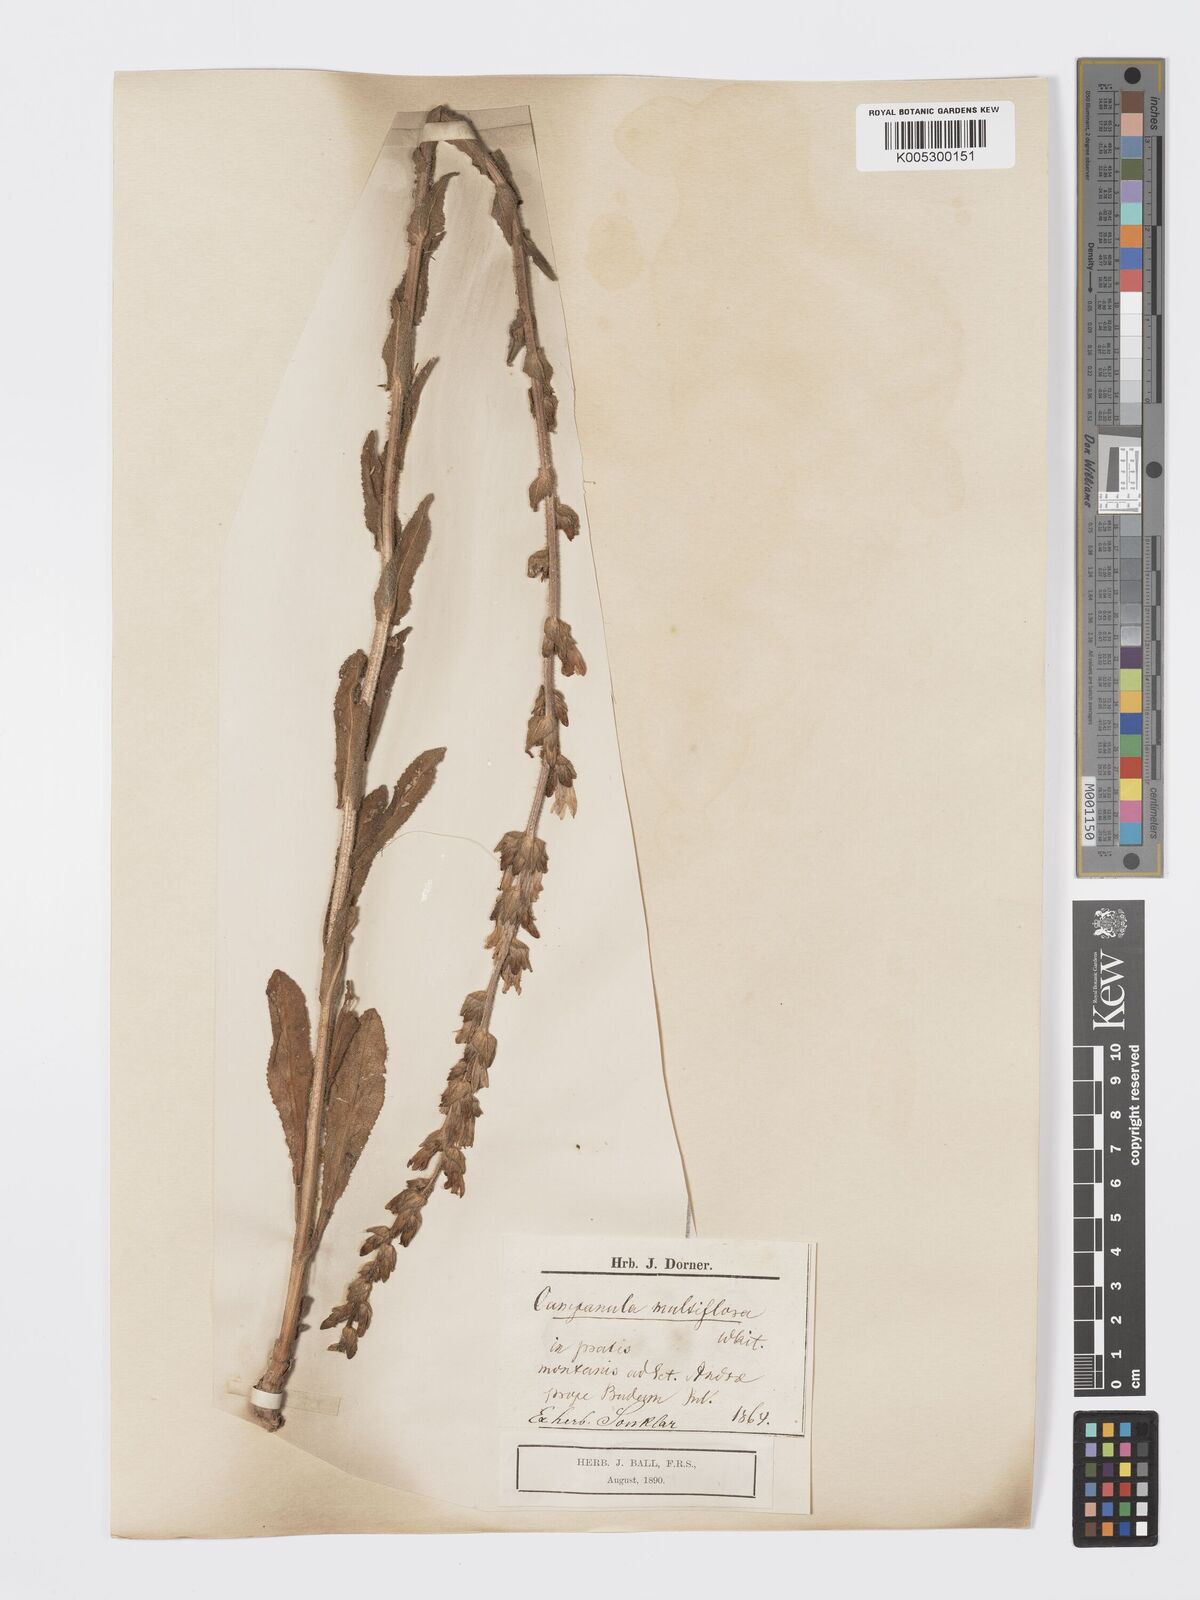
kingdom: Plantae
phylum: Tracheophyta
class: Magnoliopsida
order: Asterales
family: Campanulaceae
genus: Campanula
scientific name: Campanula macrostachya
